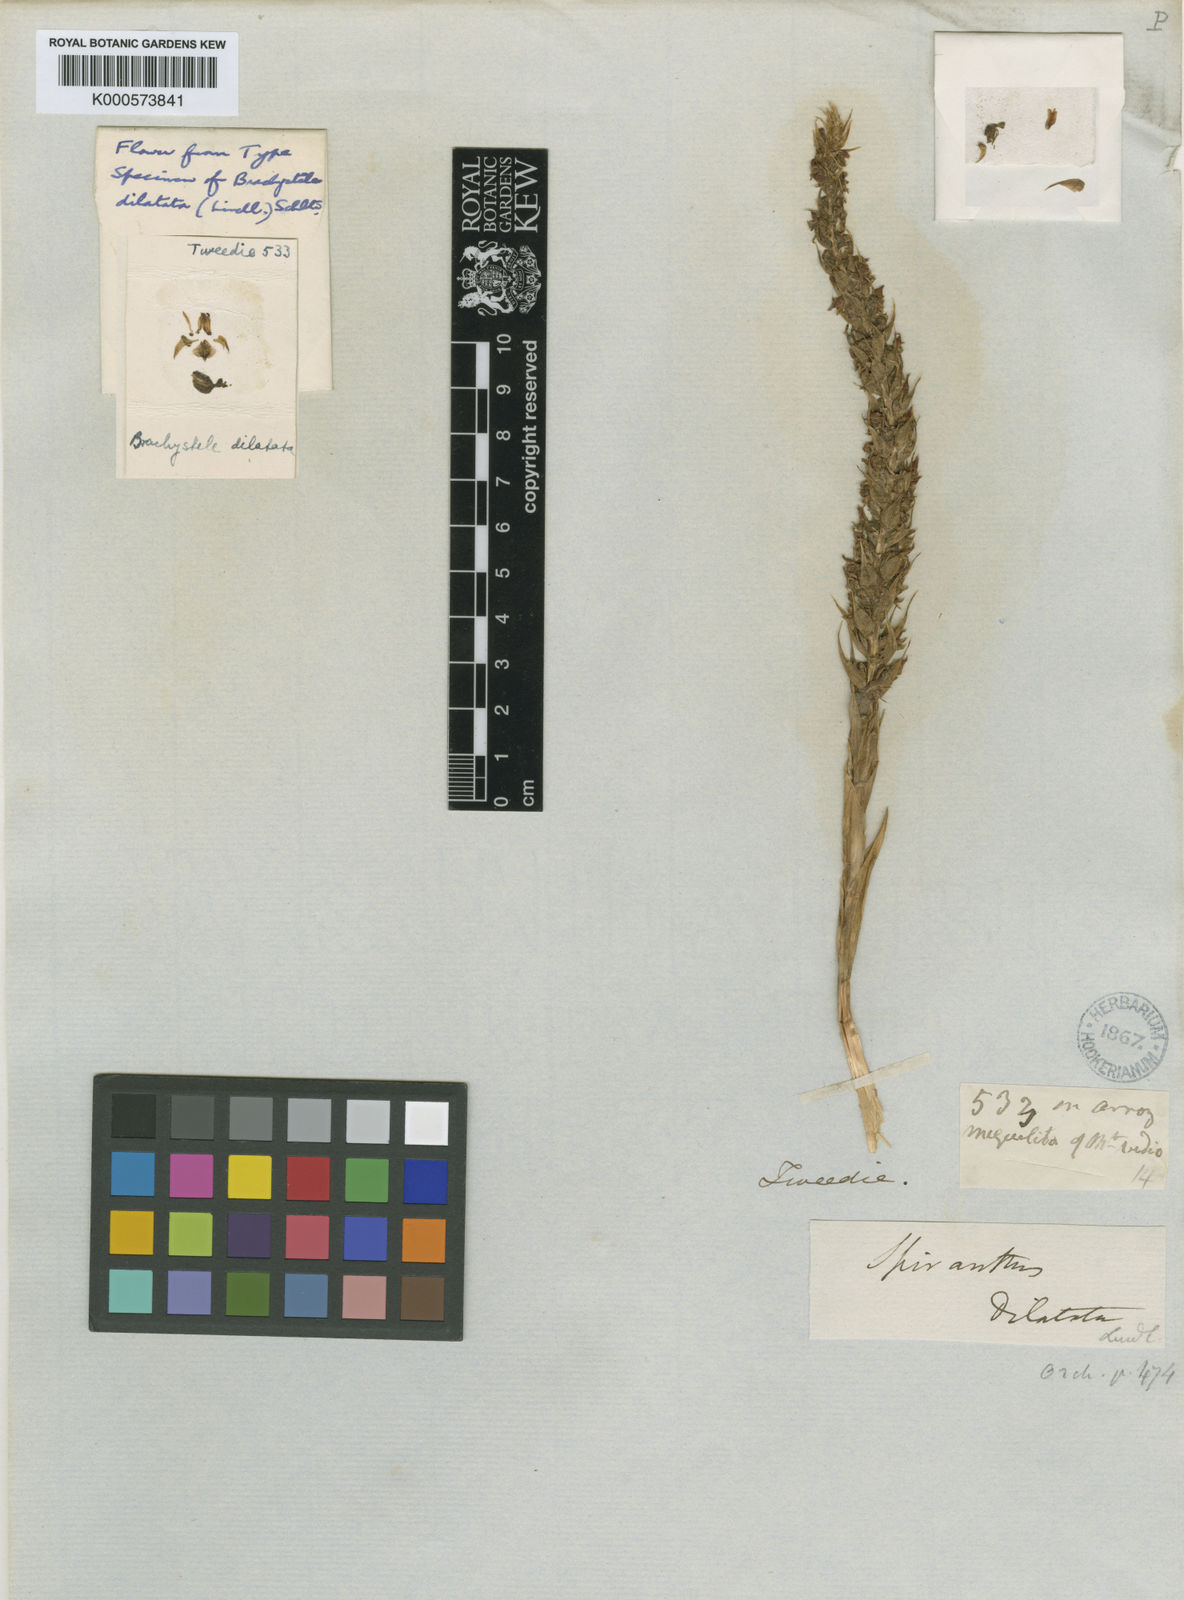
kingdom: Plantae
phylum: Tracheophyta
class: Liliopsida
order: Asparagales
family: Orchidaceae
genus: Brachystele
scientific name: Brachystele dilatata
